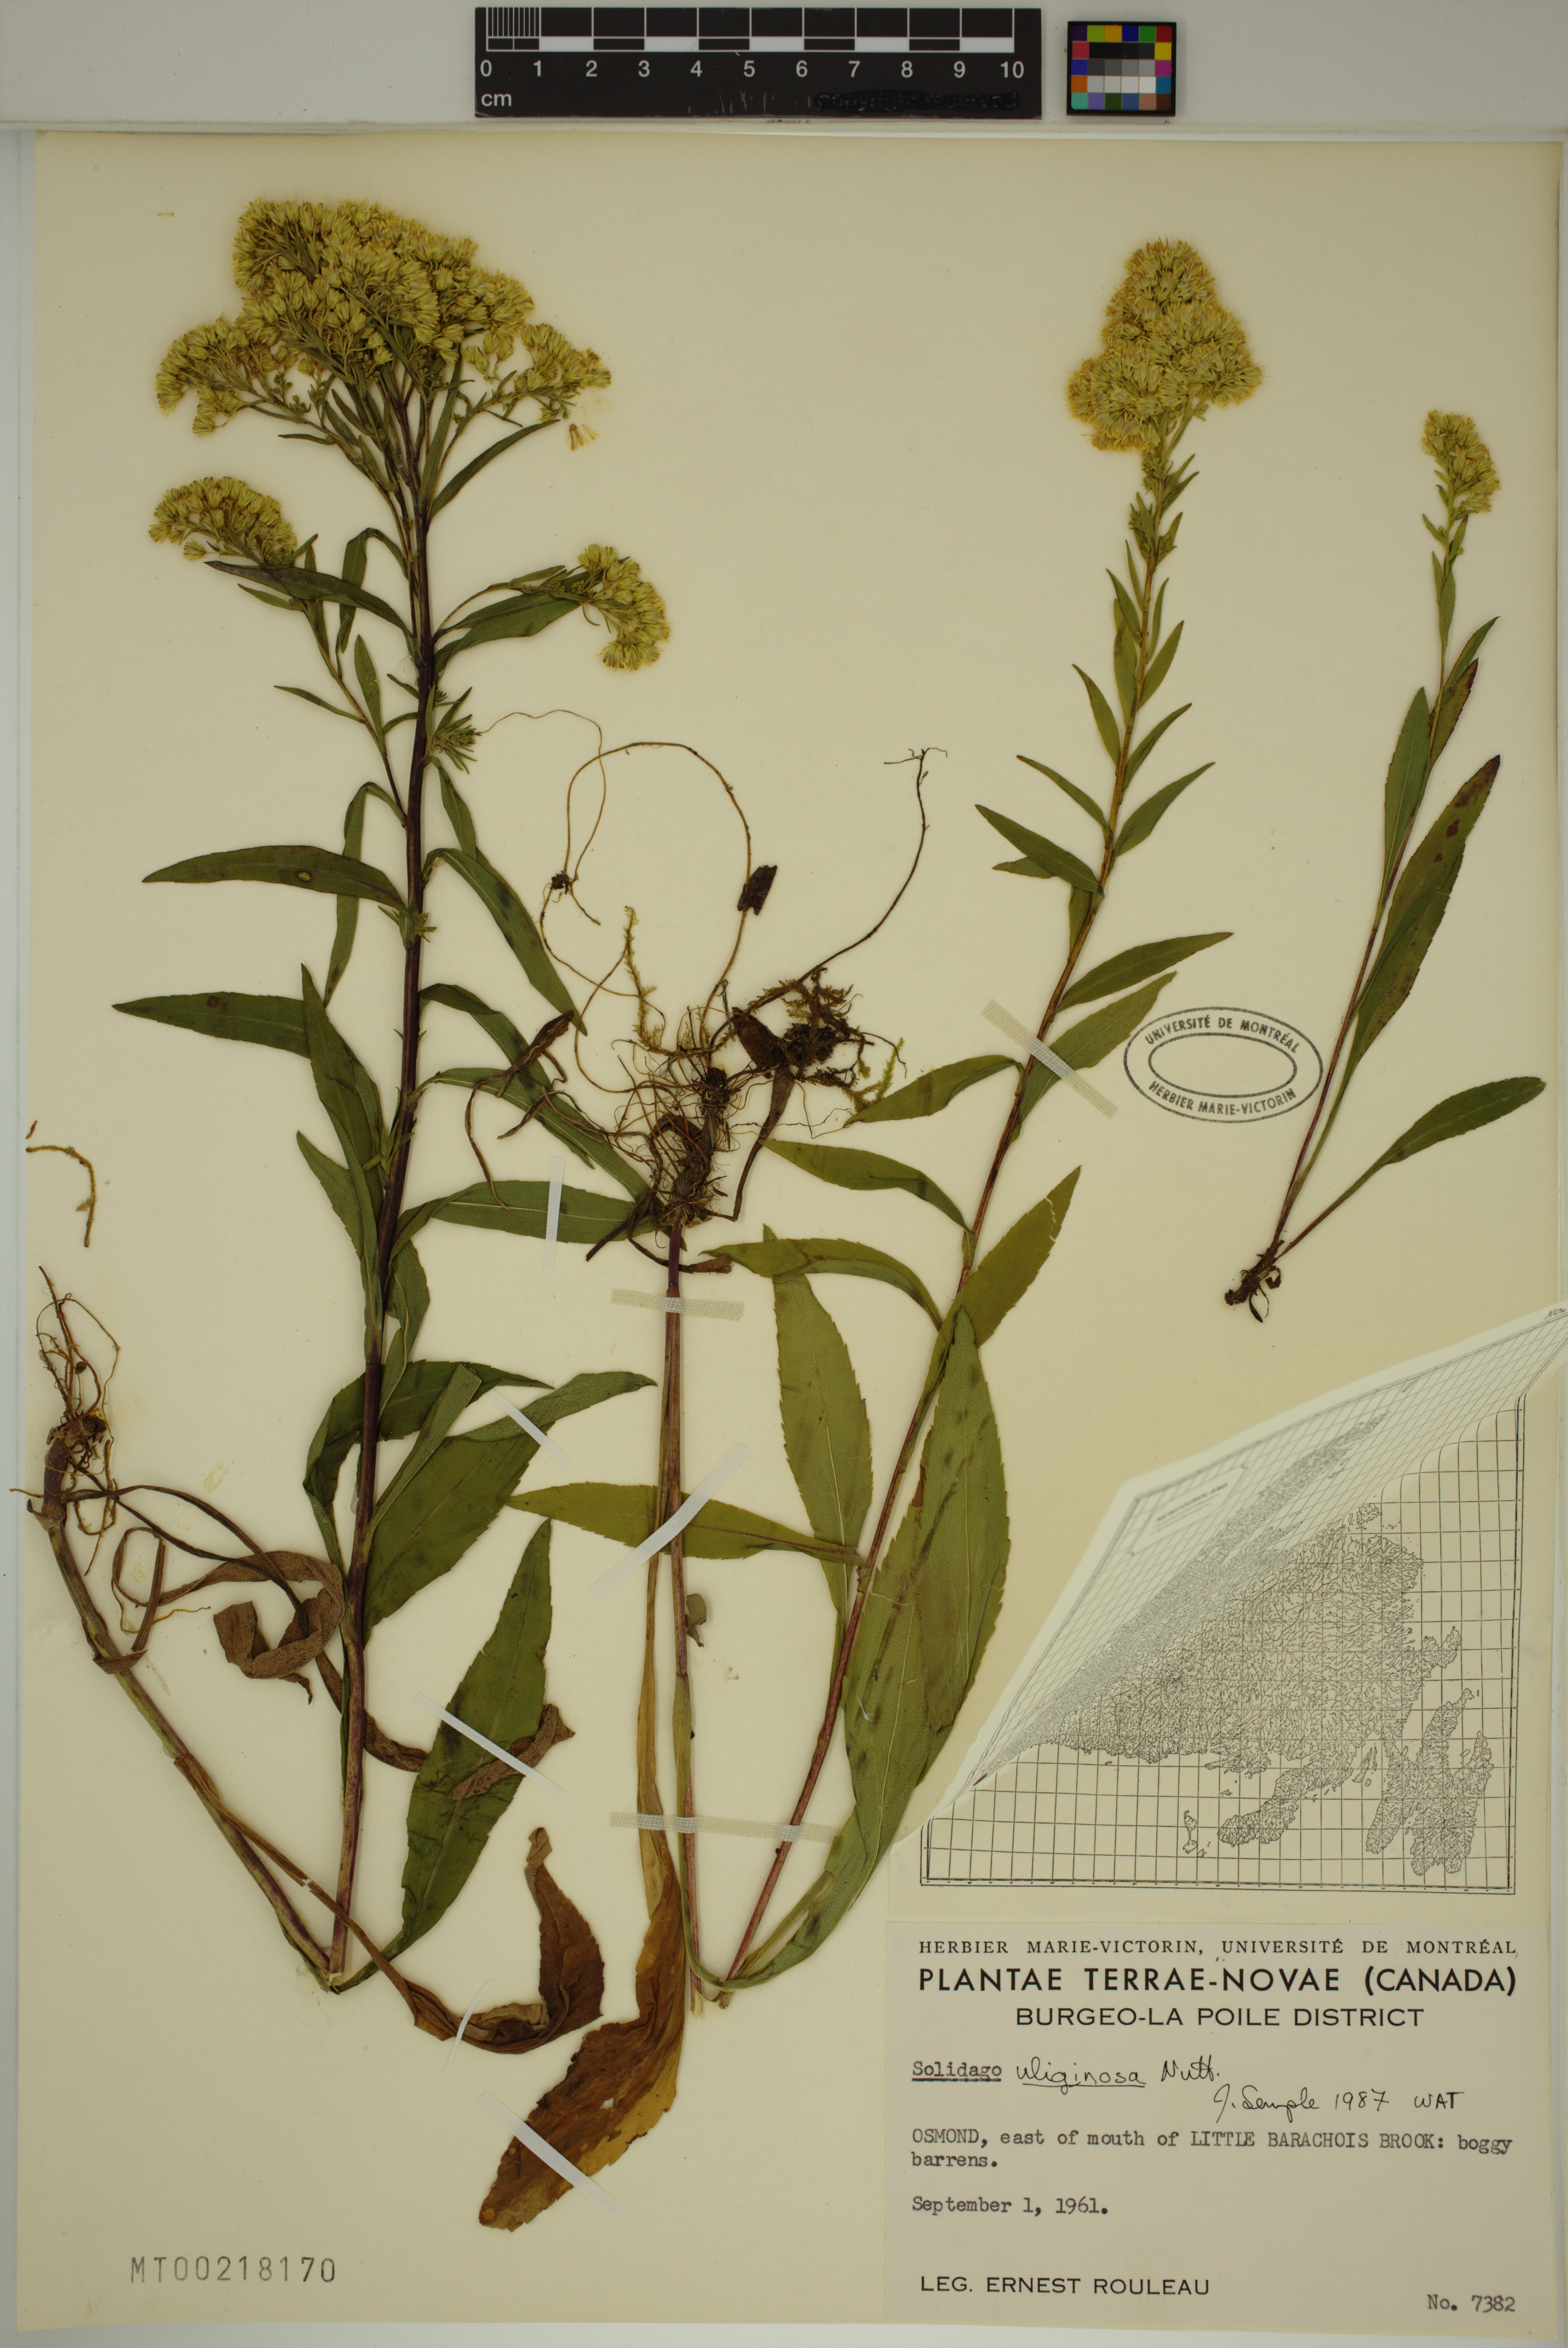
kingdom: Plantae
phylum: Tracheophyta
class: Magnoliopsida
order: Asterales
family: Asteraceae
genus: Solidago
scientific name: Solidago uliginosa
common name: Bog goldenrod
